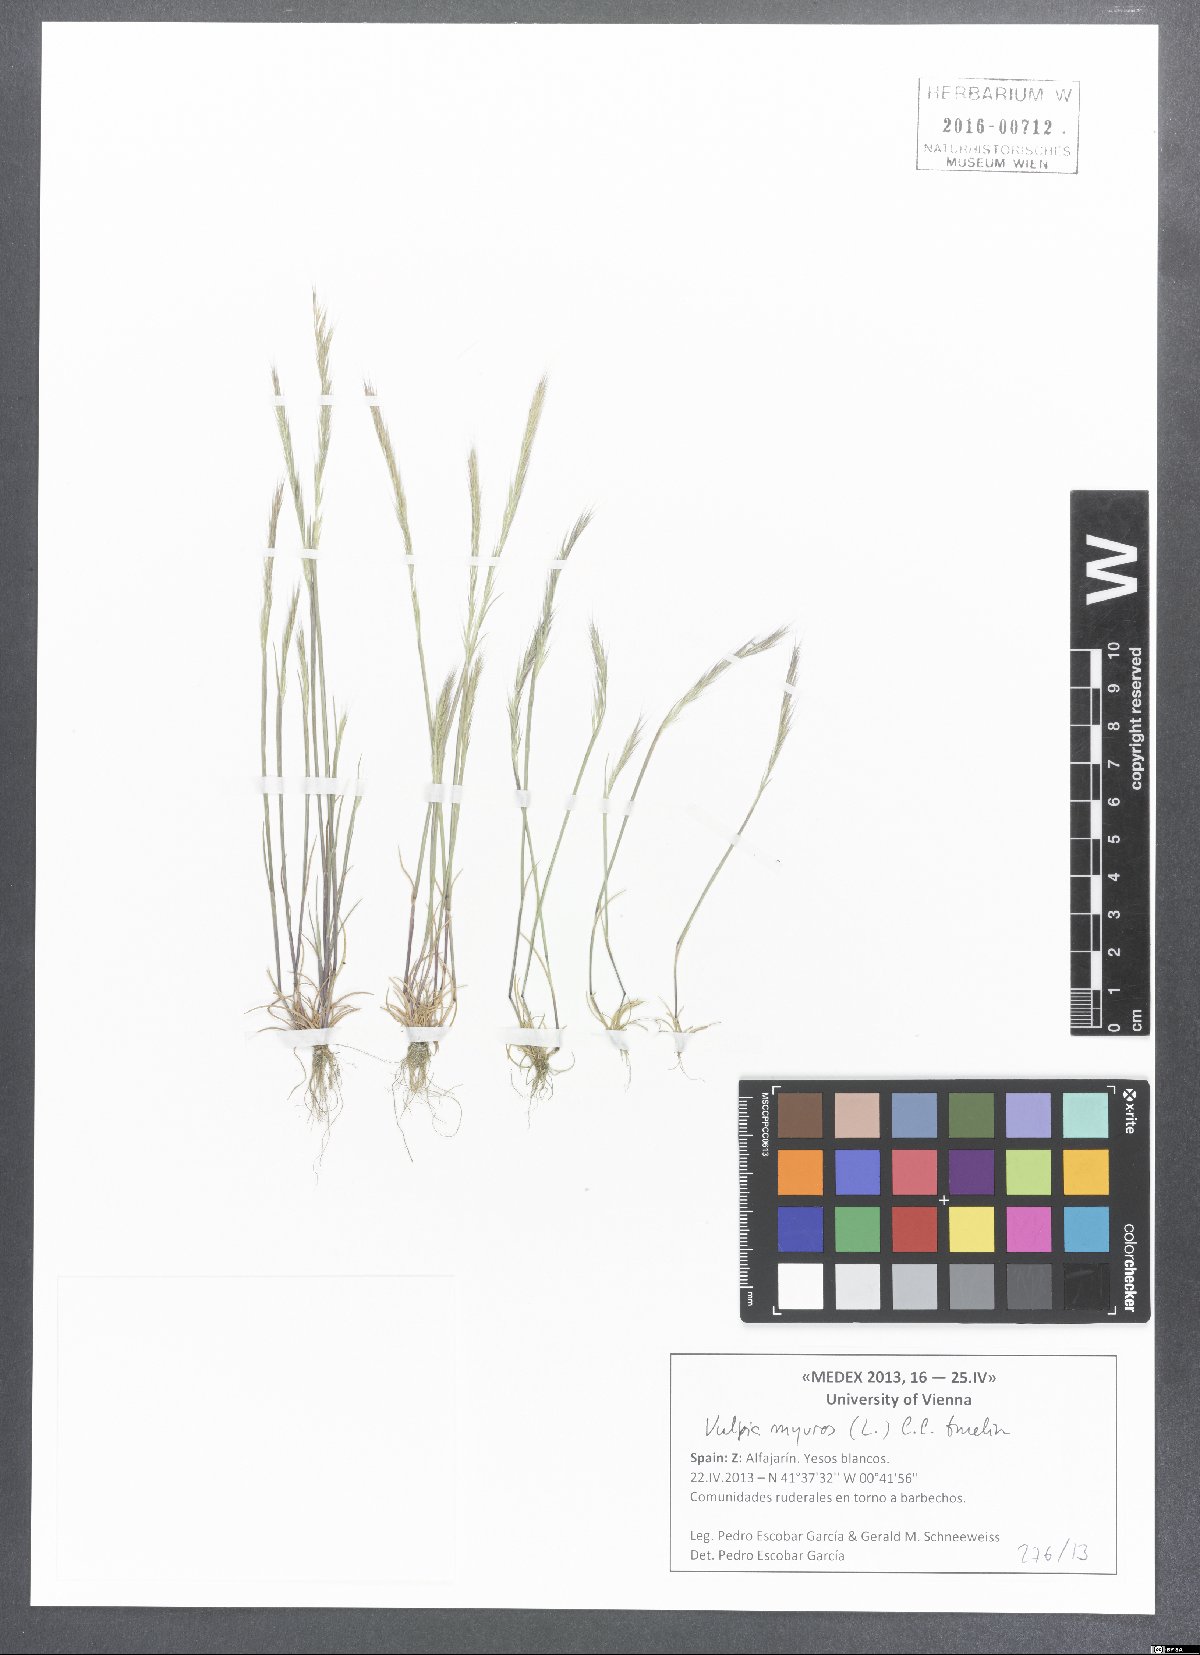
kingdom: Plantae
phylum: Tracheophyta
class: Liliopsida
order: Poales
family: Poaceae
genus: Festuca
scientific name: Festuca myuros
